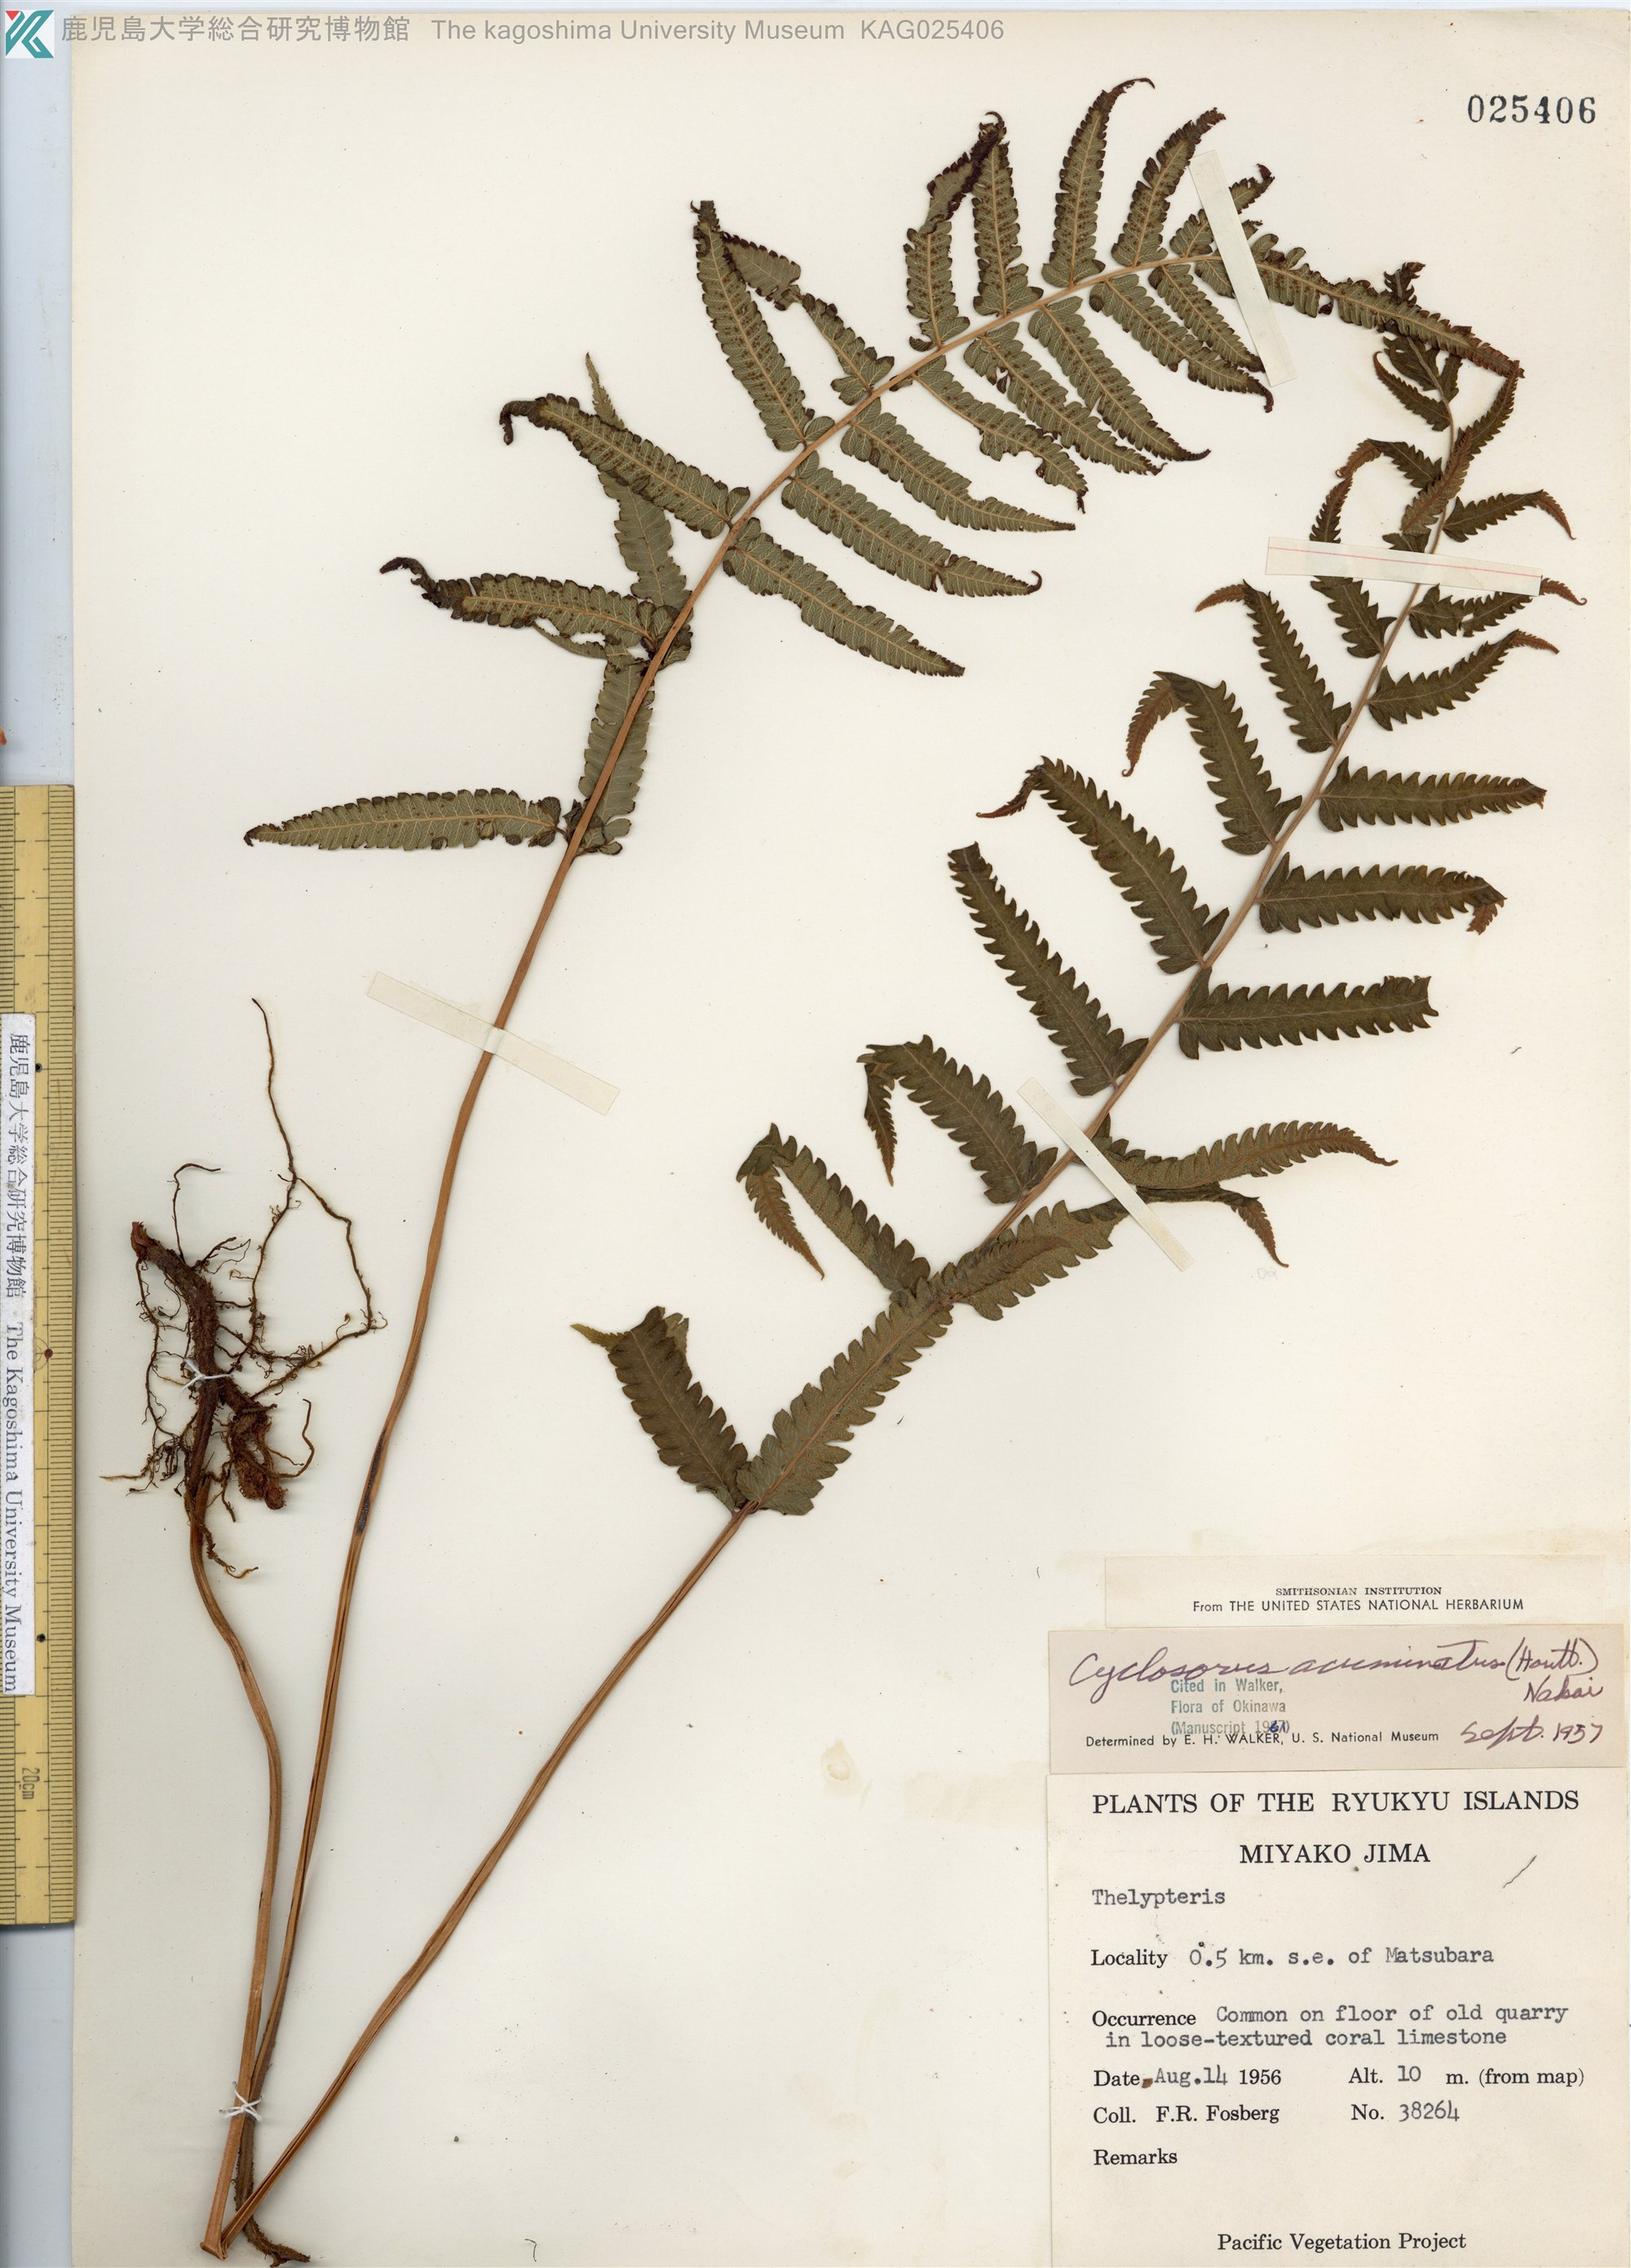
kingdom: Plantae
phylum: Tracheophyta
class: Polypodiopsida
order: Polypodiales
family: Thelypteridaceae
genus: Christella
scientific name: Christella acuminata
